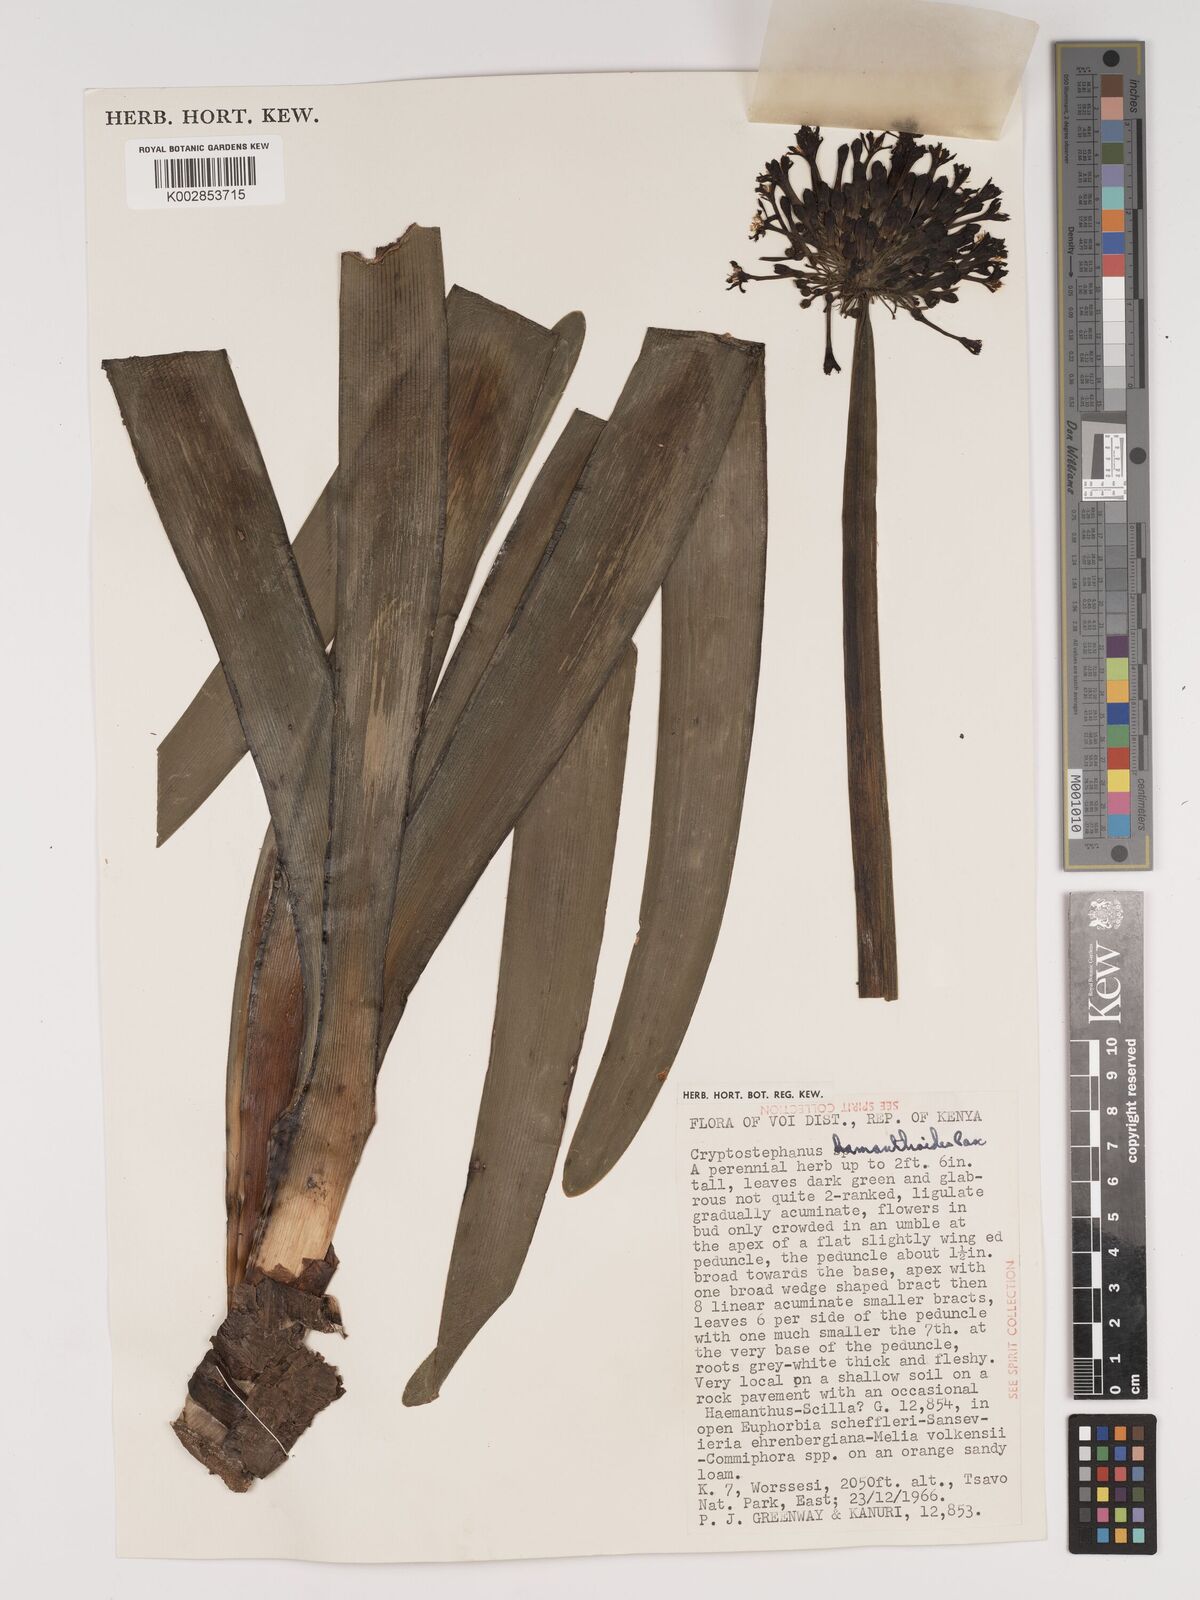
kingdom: Plantae
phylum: Tracheophyta
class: Liliopsida
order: Asparagales
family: Amaryllidaceae
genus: Cryptostephanus
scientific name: Cryptostephanus haemanthoides
